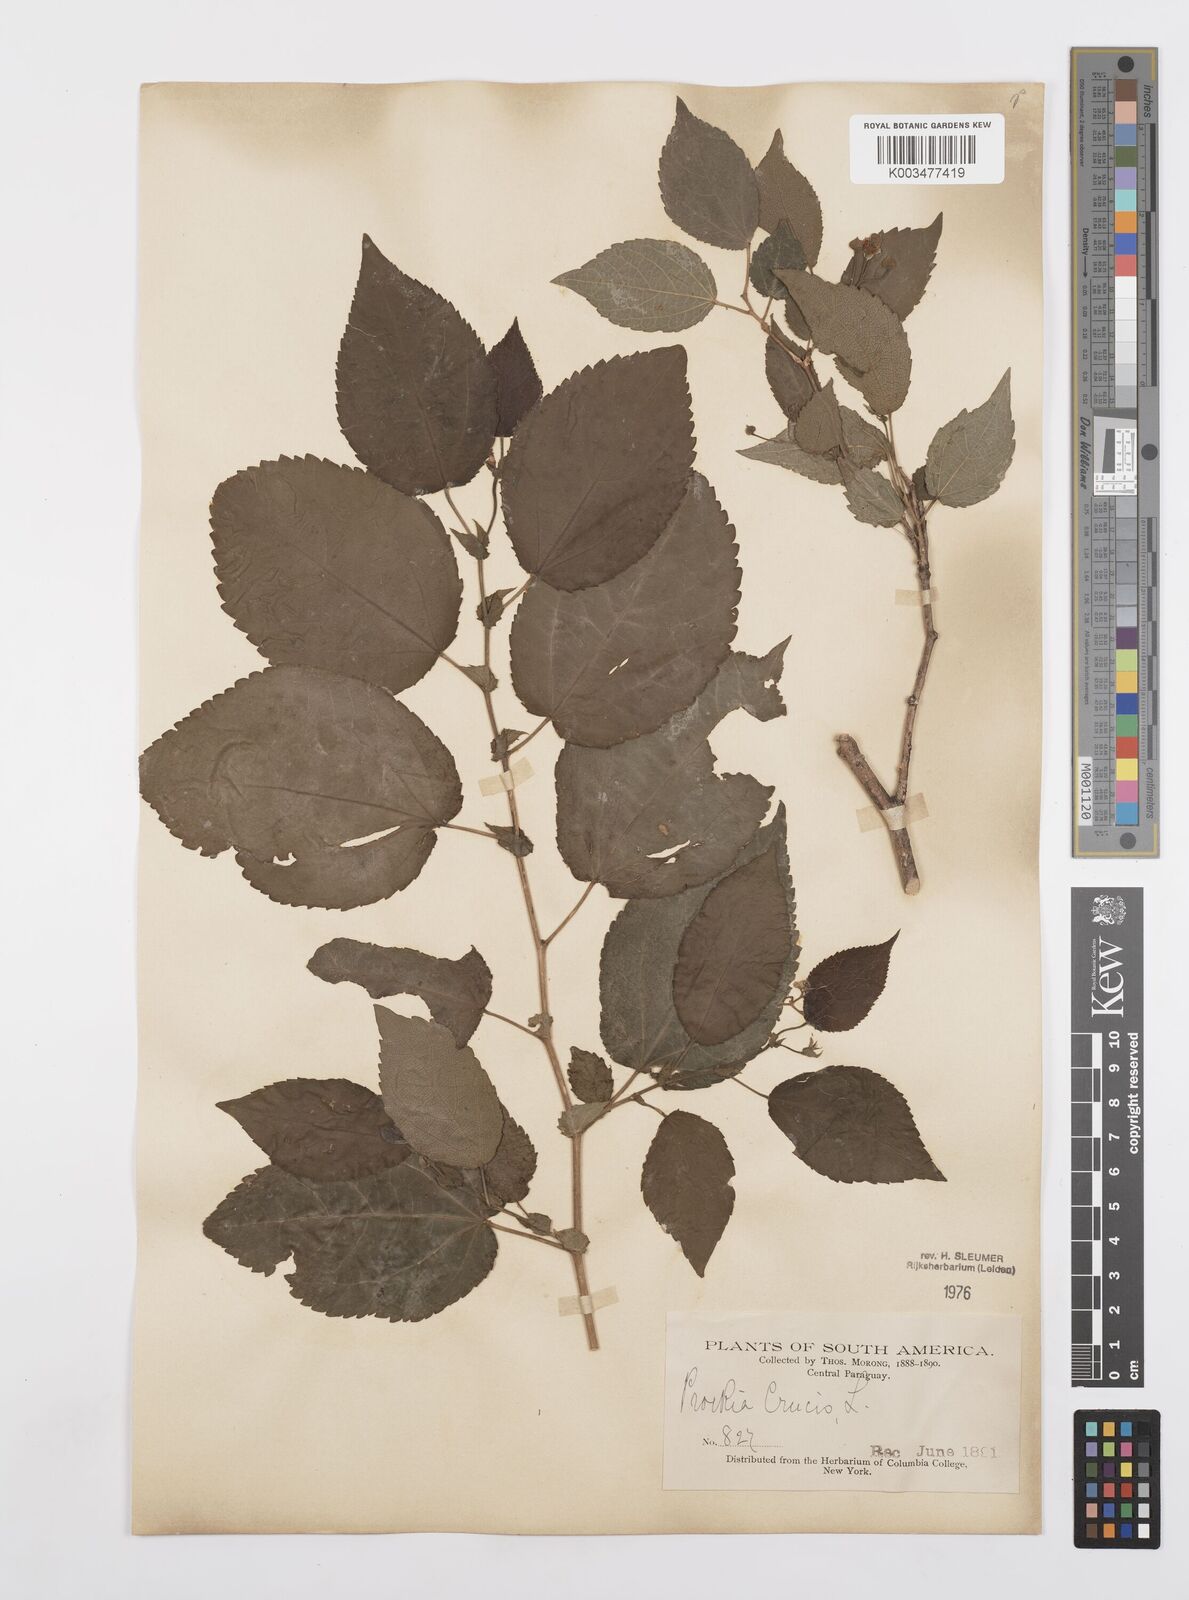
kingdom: Plantae
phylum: Tracheophyta
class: Magnoliopsida
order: Malpighiales
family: Salicaceae
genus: Prockia
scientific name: Prockia crucis
